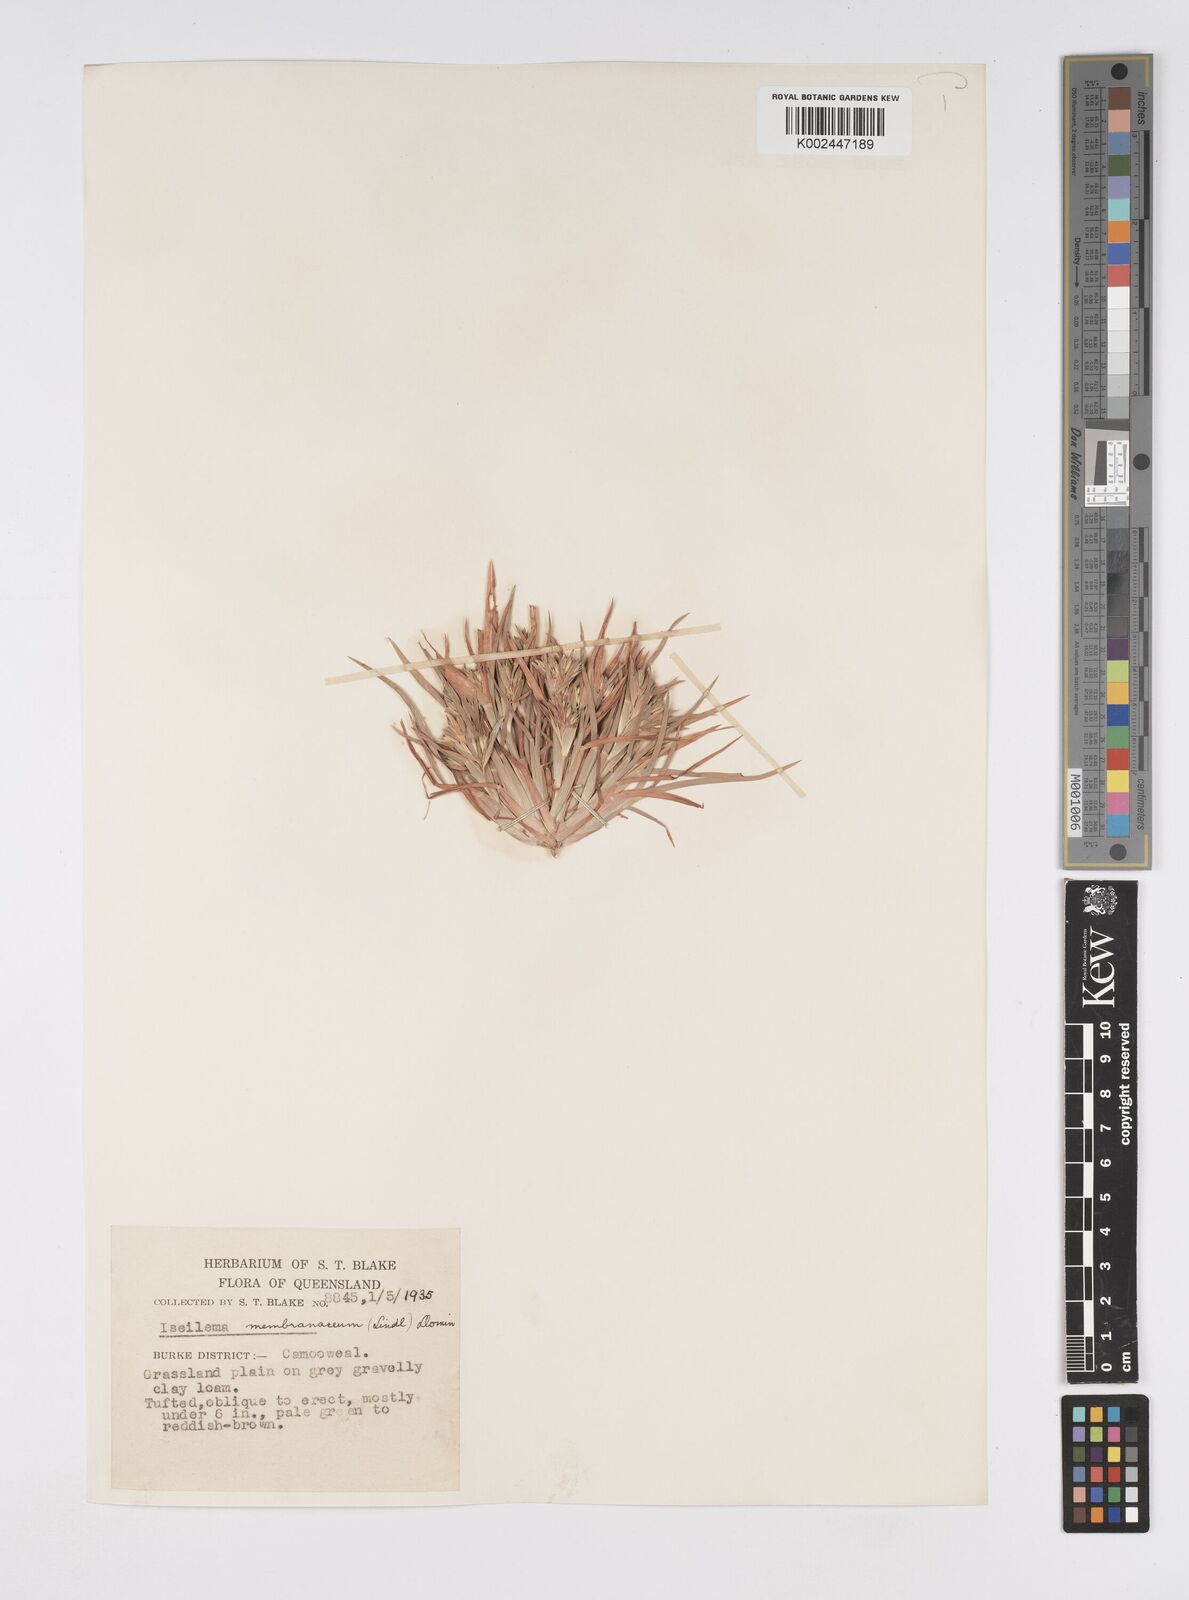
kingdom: Plantae
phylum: Tracheophyta
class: Liliopsida
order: Poales
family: Poaceae
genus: Iseilema
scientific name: Iseilema membranaceum
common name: Small flinders grass
